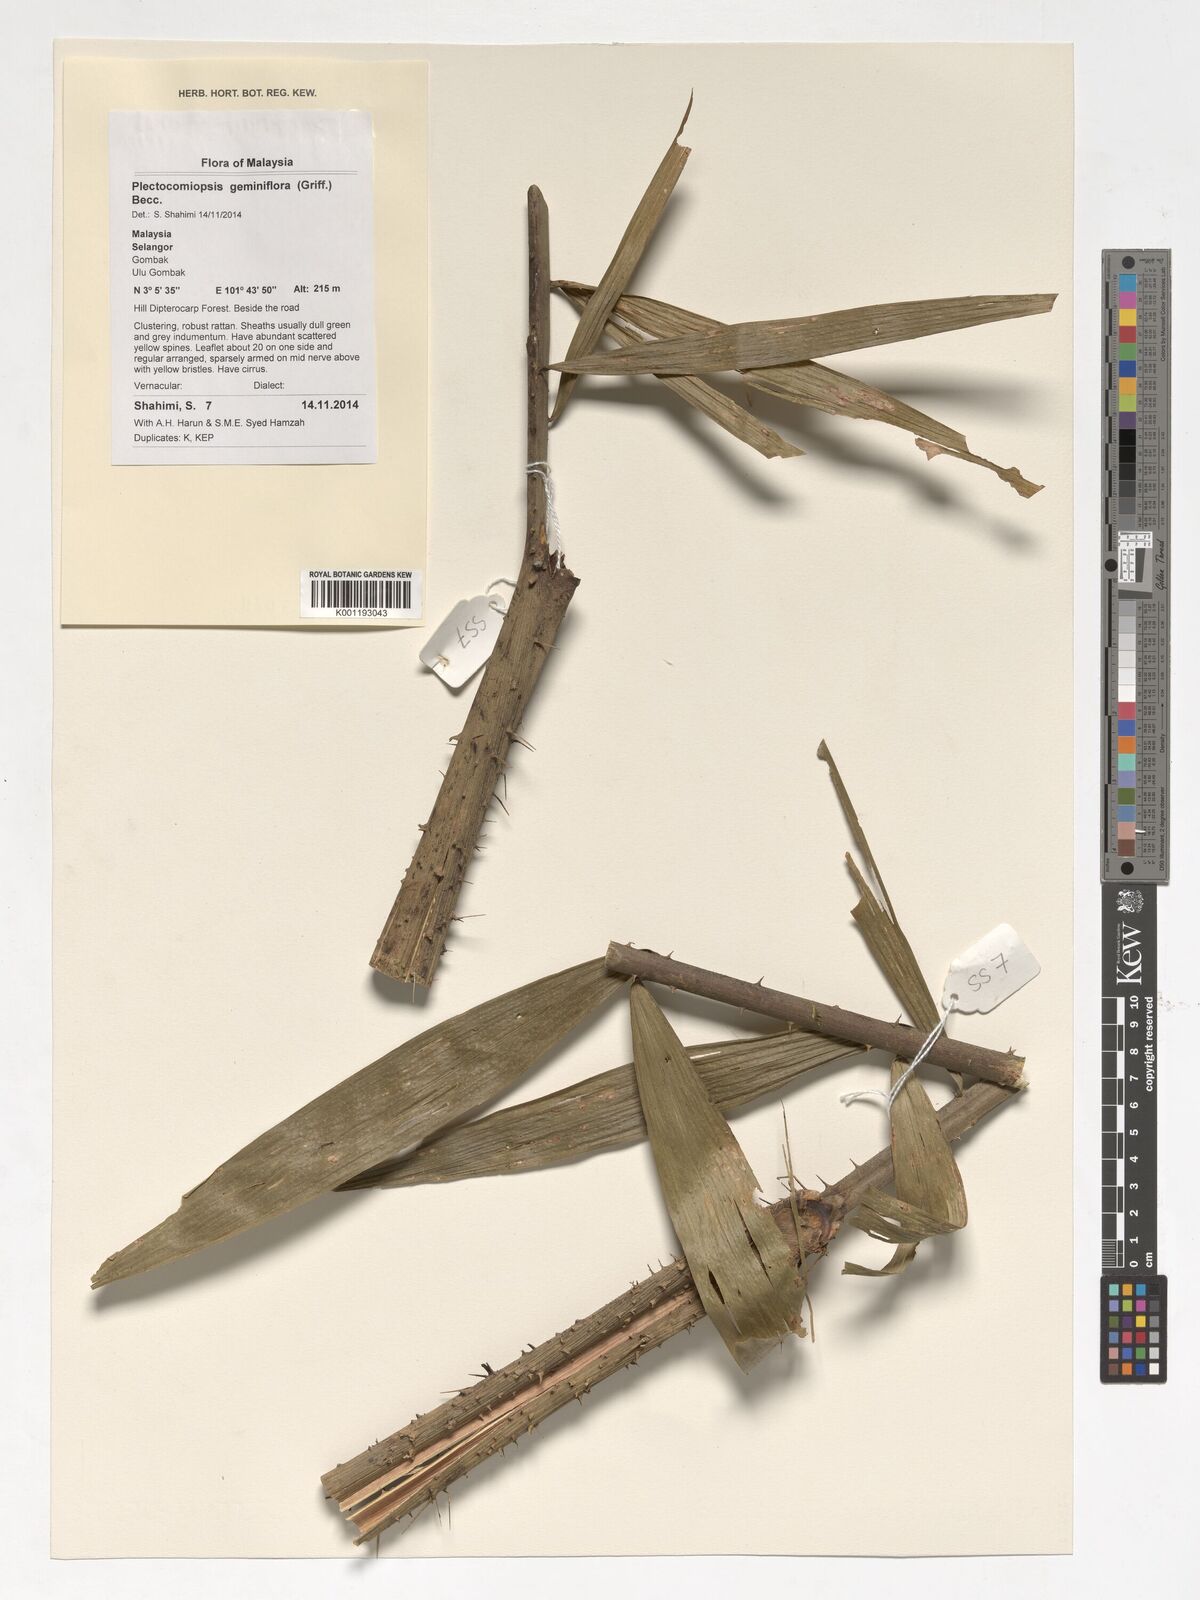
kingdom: Plantae
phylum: Tracheophyta
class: Liliopsida
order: Arecales
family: Arecaceae
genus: Plectocomiopsis
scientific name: Plectocomiopsis geminiflora
